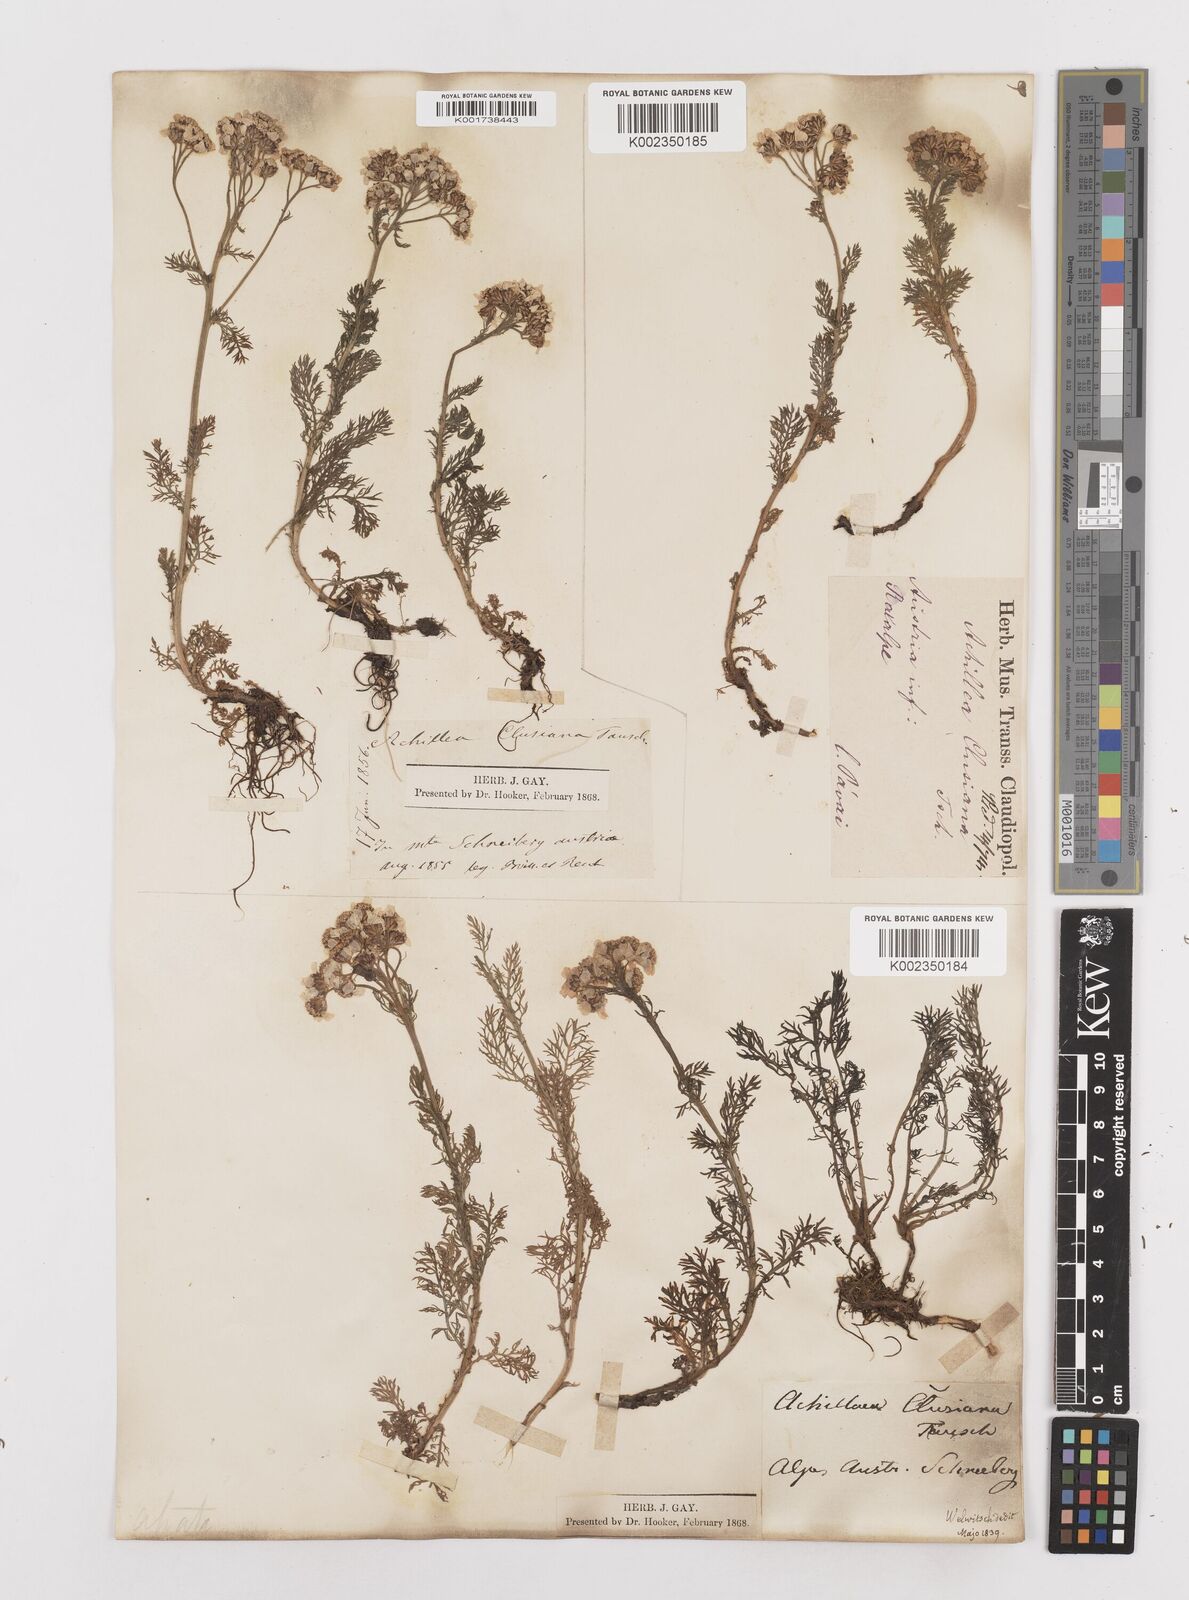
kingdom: Plantae
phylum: Tracheophyta
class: Magnoliopsida
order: Asterales
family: Asteraceae
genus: Achillea
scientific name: Achillea clusiana
